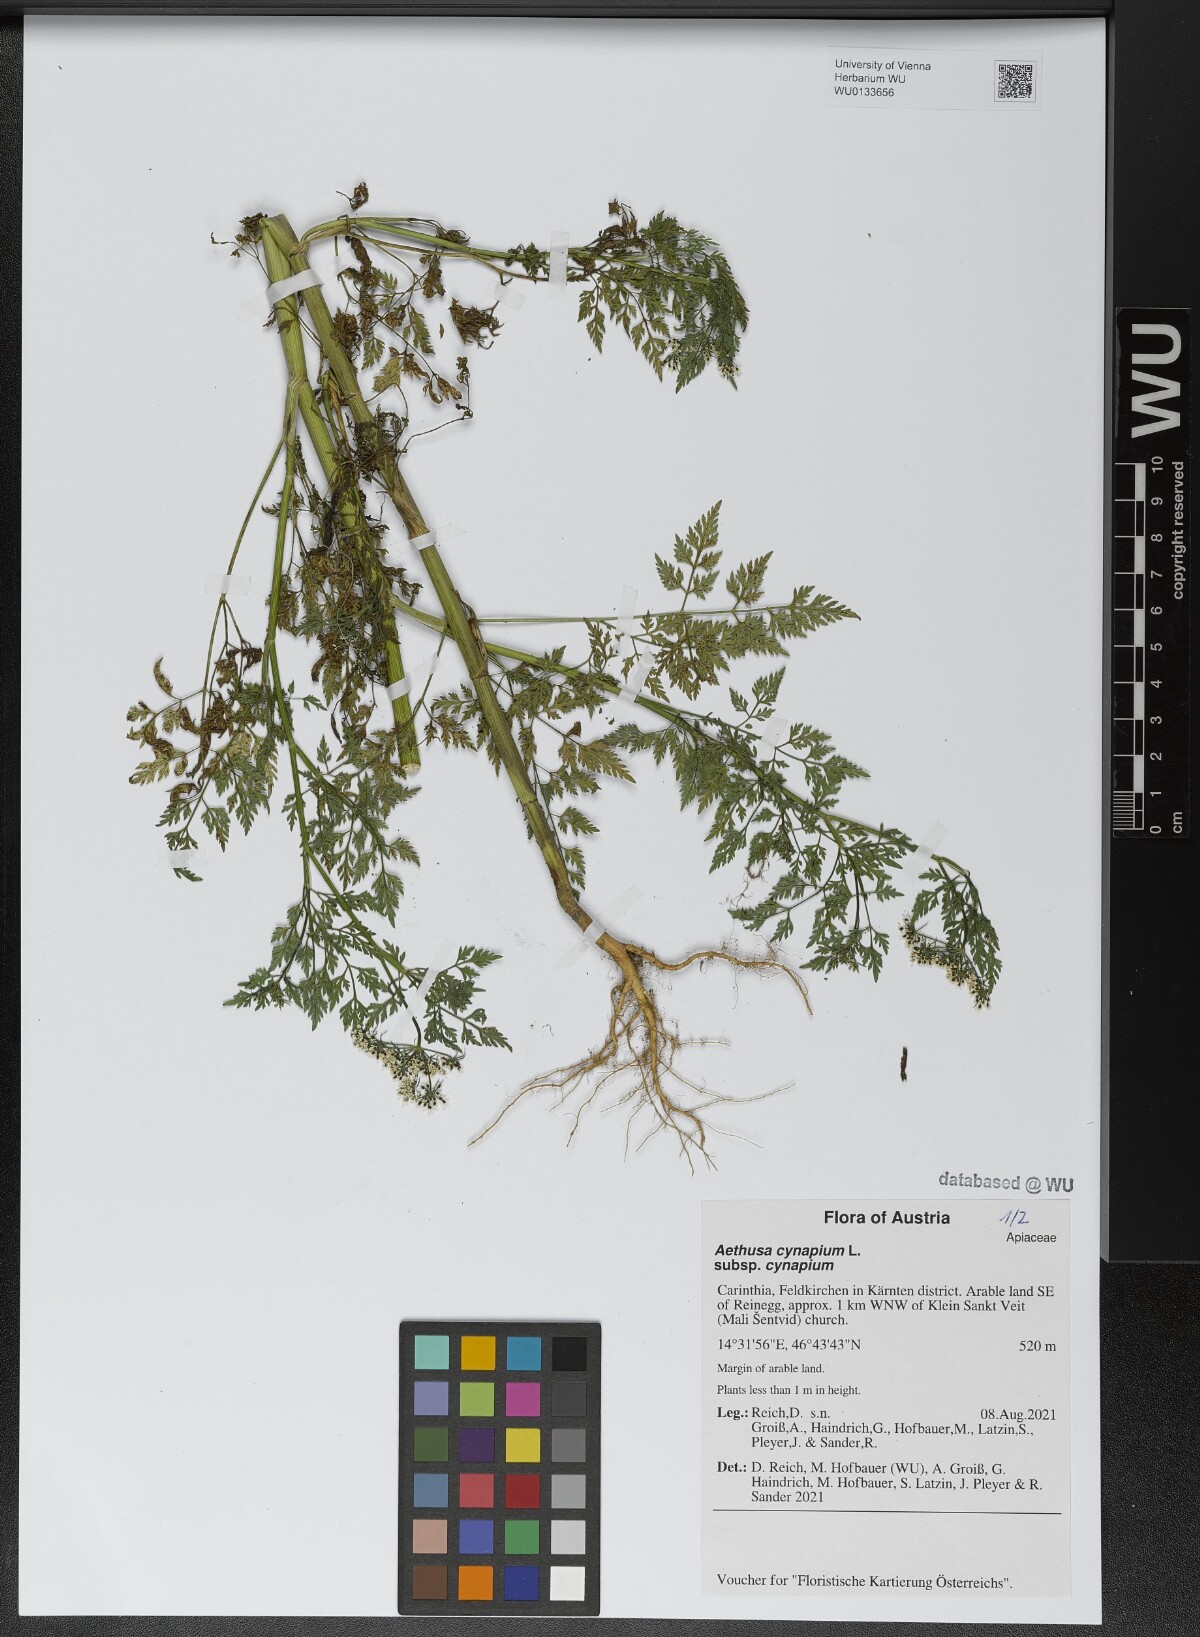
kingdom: Plantae
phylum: Tracheophyta
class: Magnoliopsida
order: Apiales
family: Apiaceae
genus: Aethusa
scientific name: Aethusa cynapium
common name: Fool's parsley
